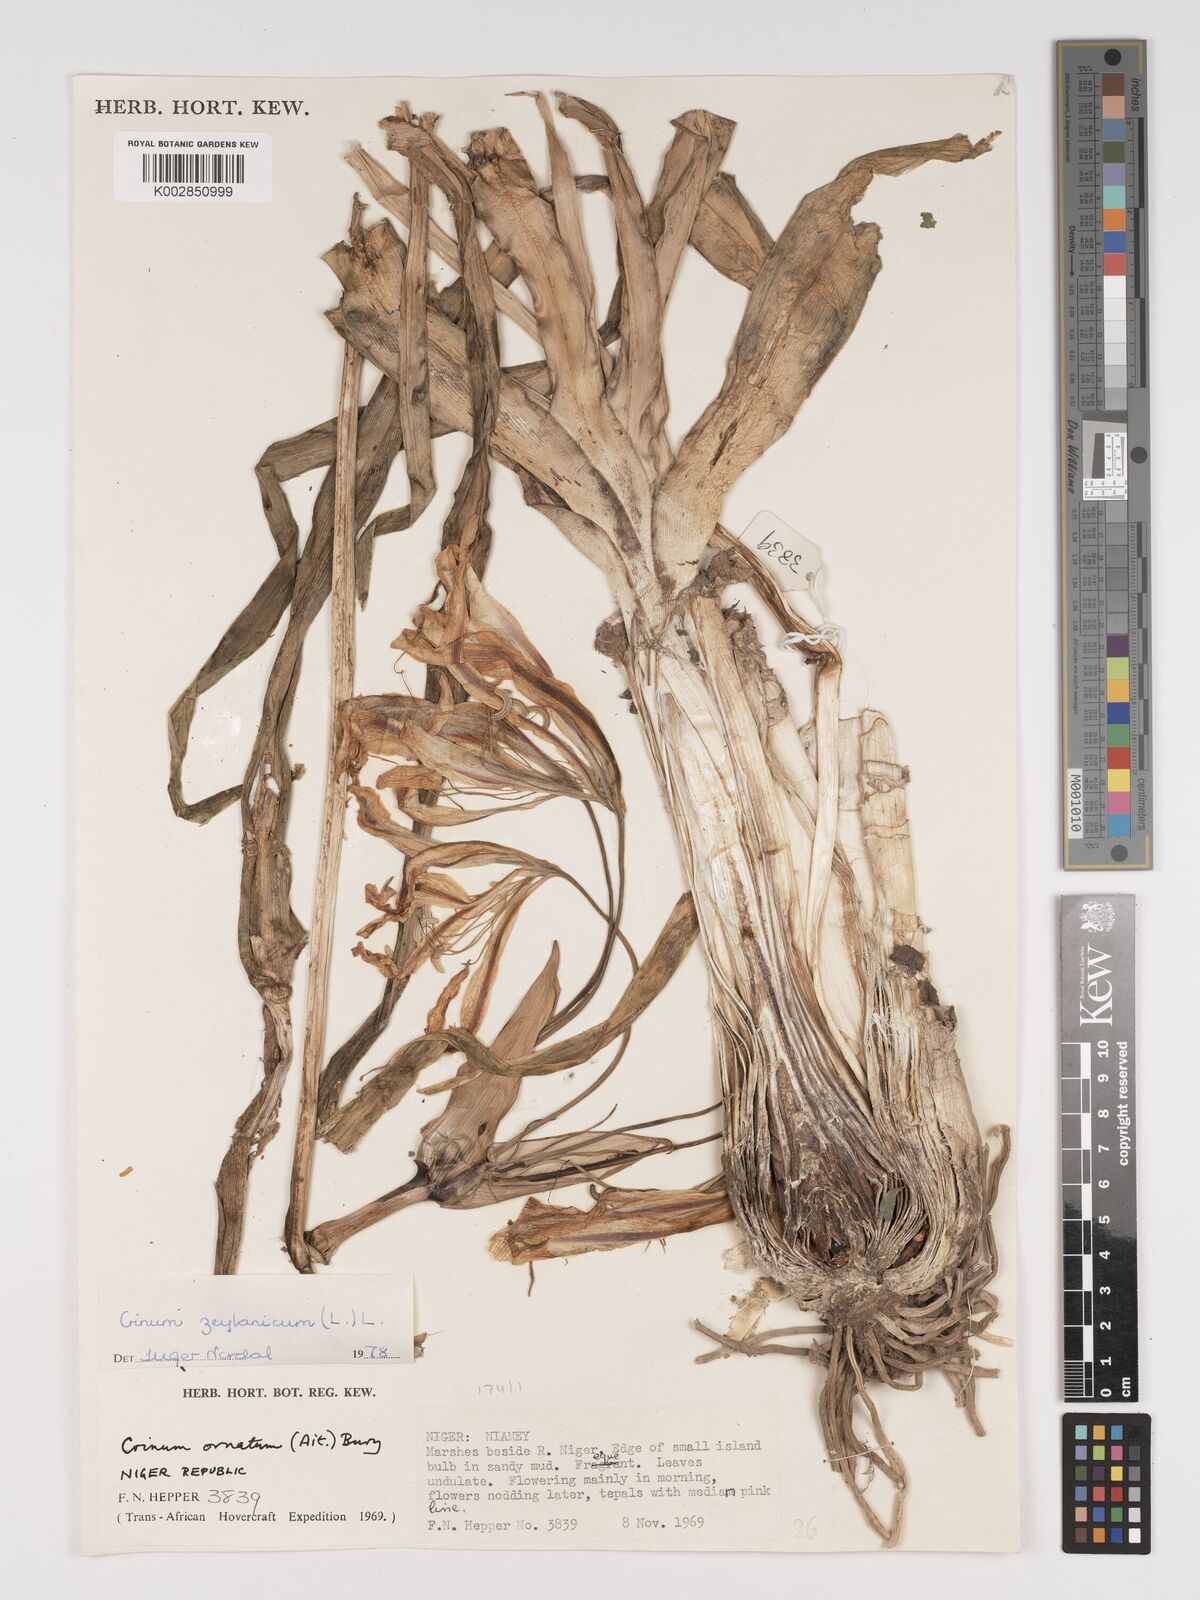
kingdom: Plantae
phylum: Tracheophyta
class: Liliopsida
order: Asparagales
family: Amaryllidaceae
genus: Crinum
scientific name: Crinum ornatum
